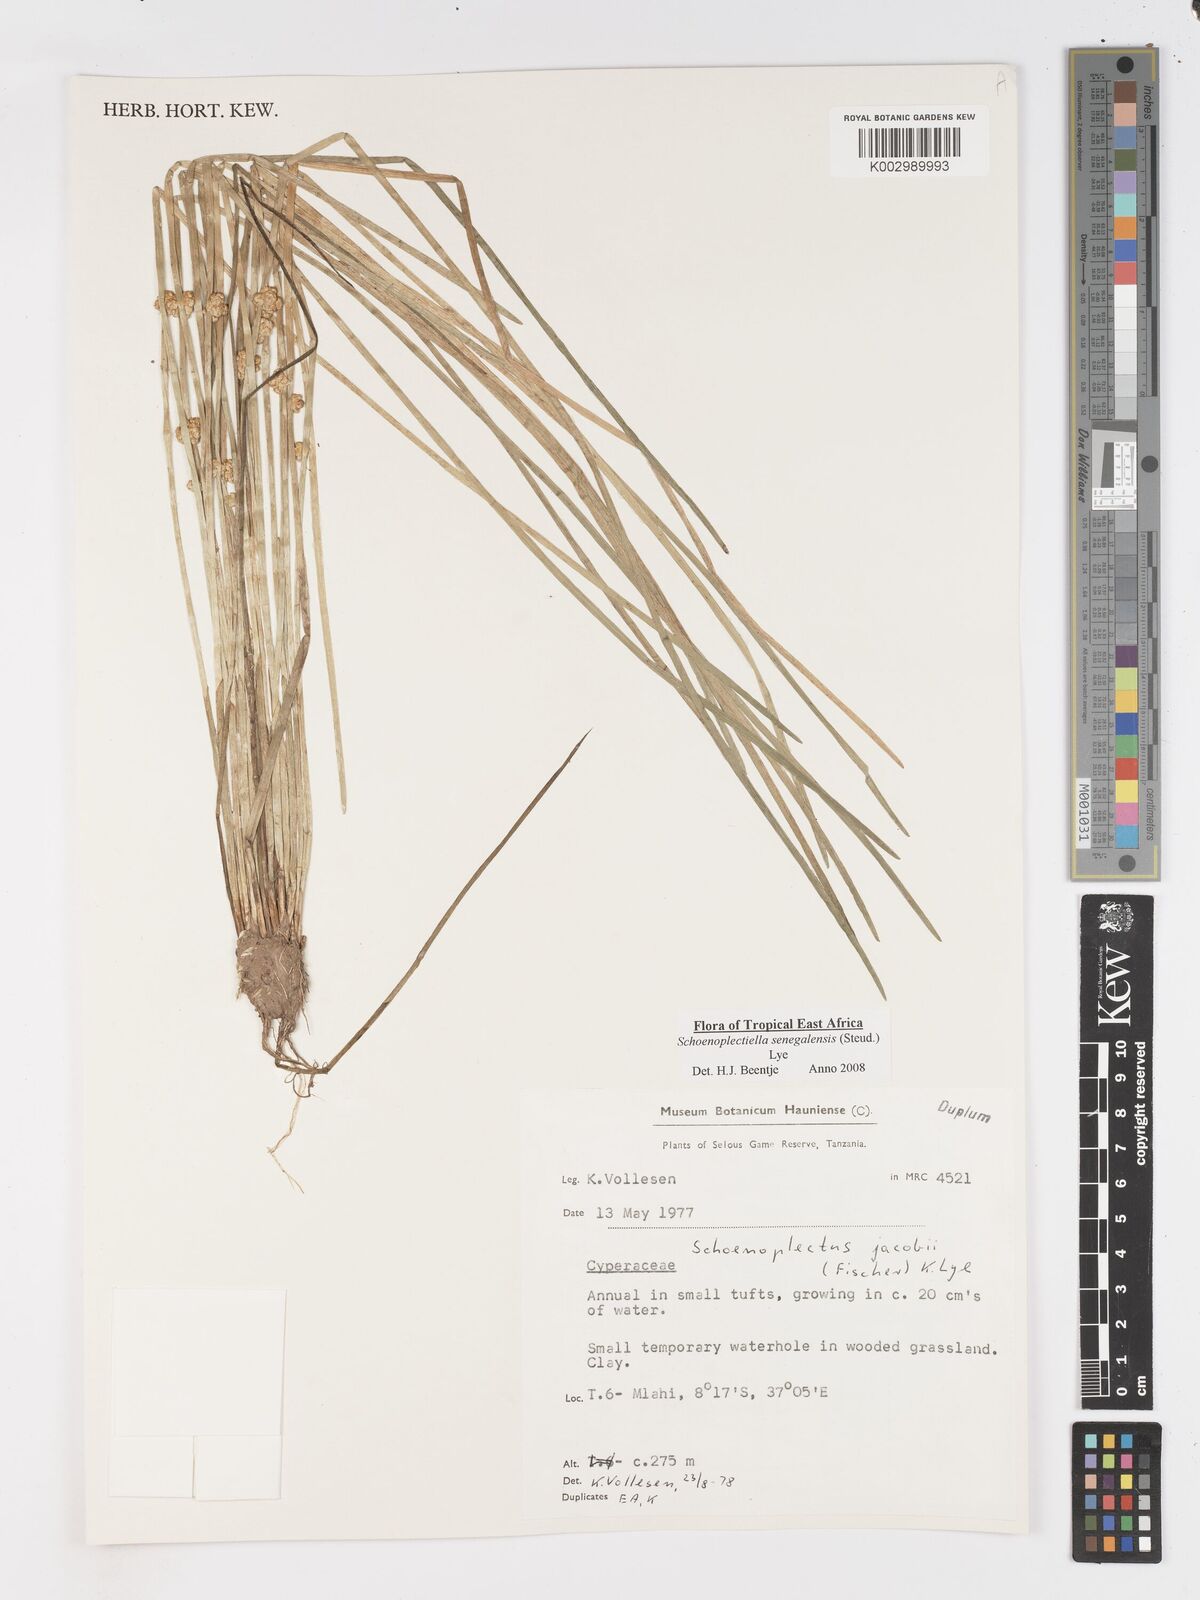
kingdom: Plantae
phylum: Tracheophyta
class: Liliopsida
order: Poales
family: Cyperaceae
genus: Schoenoplectiella
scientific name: Schoenoplectiella senegalensis
